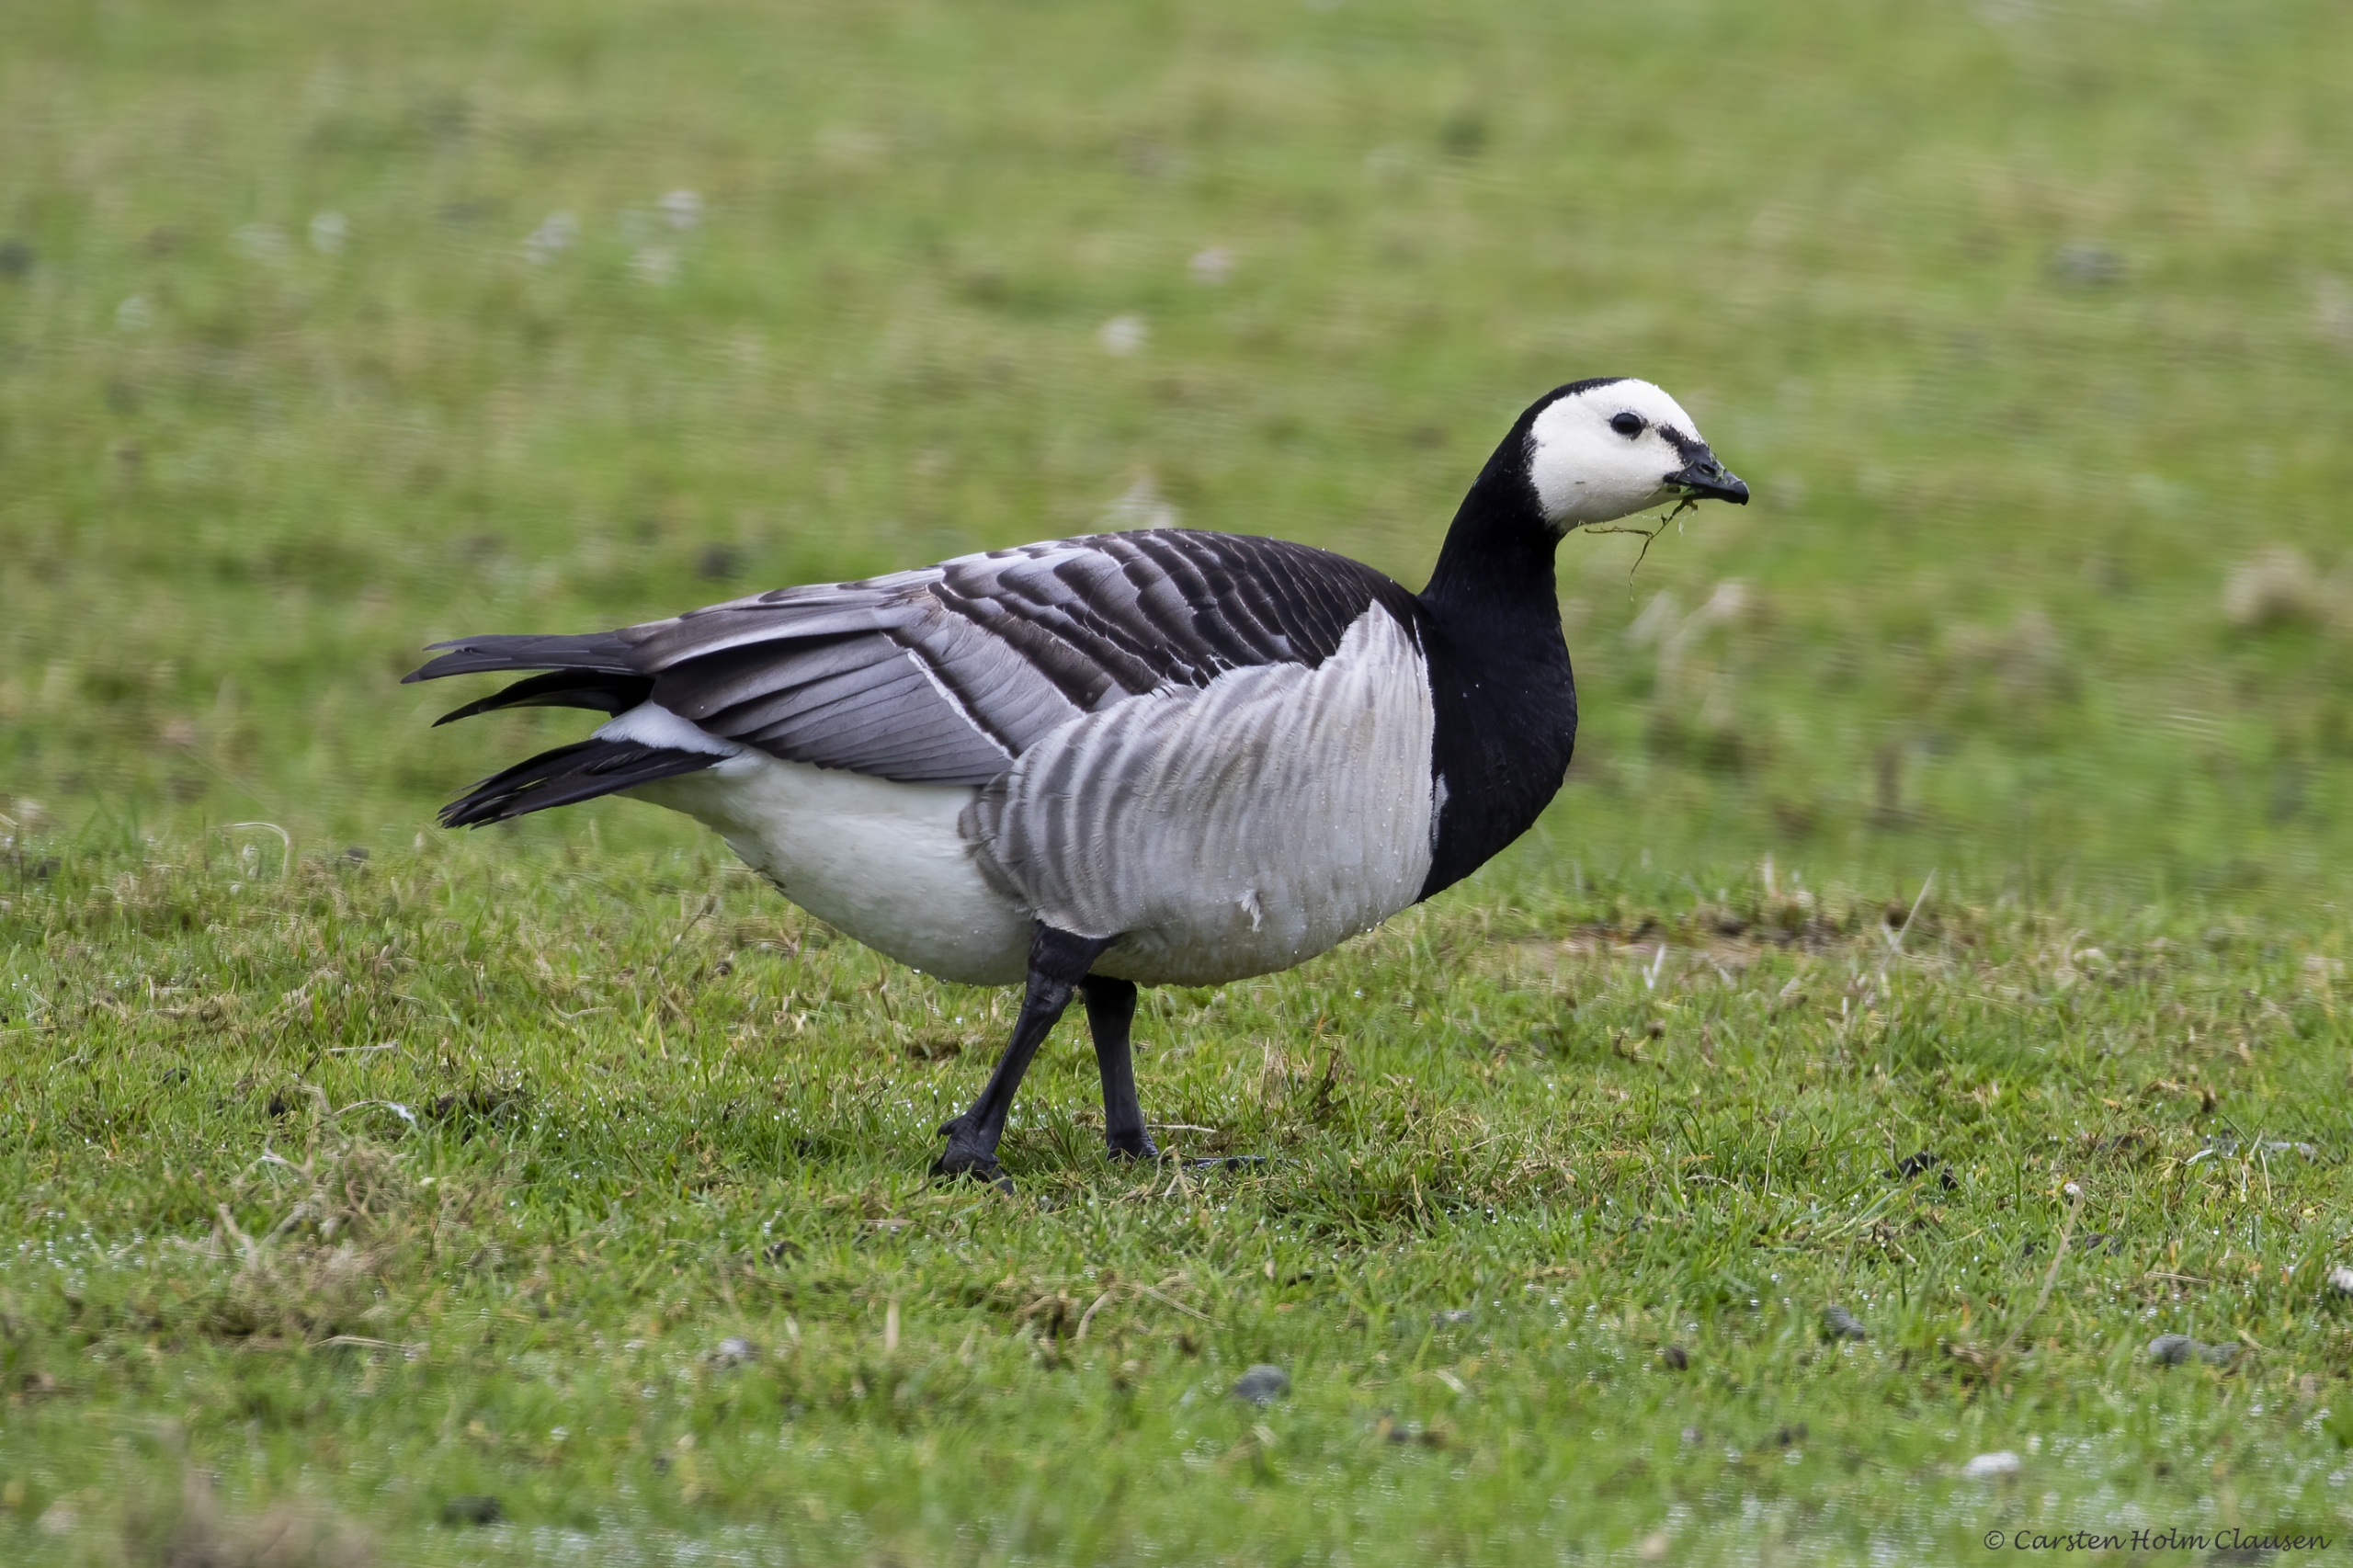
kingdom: Animalia
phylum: Chordata
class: Aves
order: Anseriformes
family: Anatidae
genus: Branta
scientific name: Branta leucopsis
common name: Bramgås
